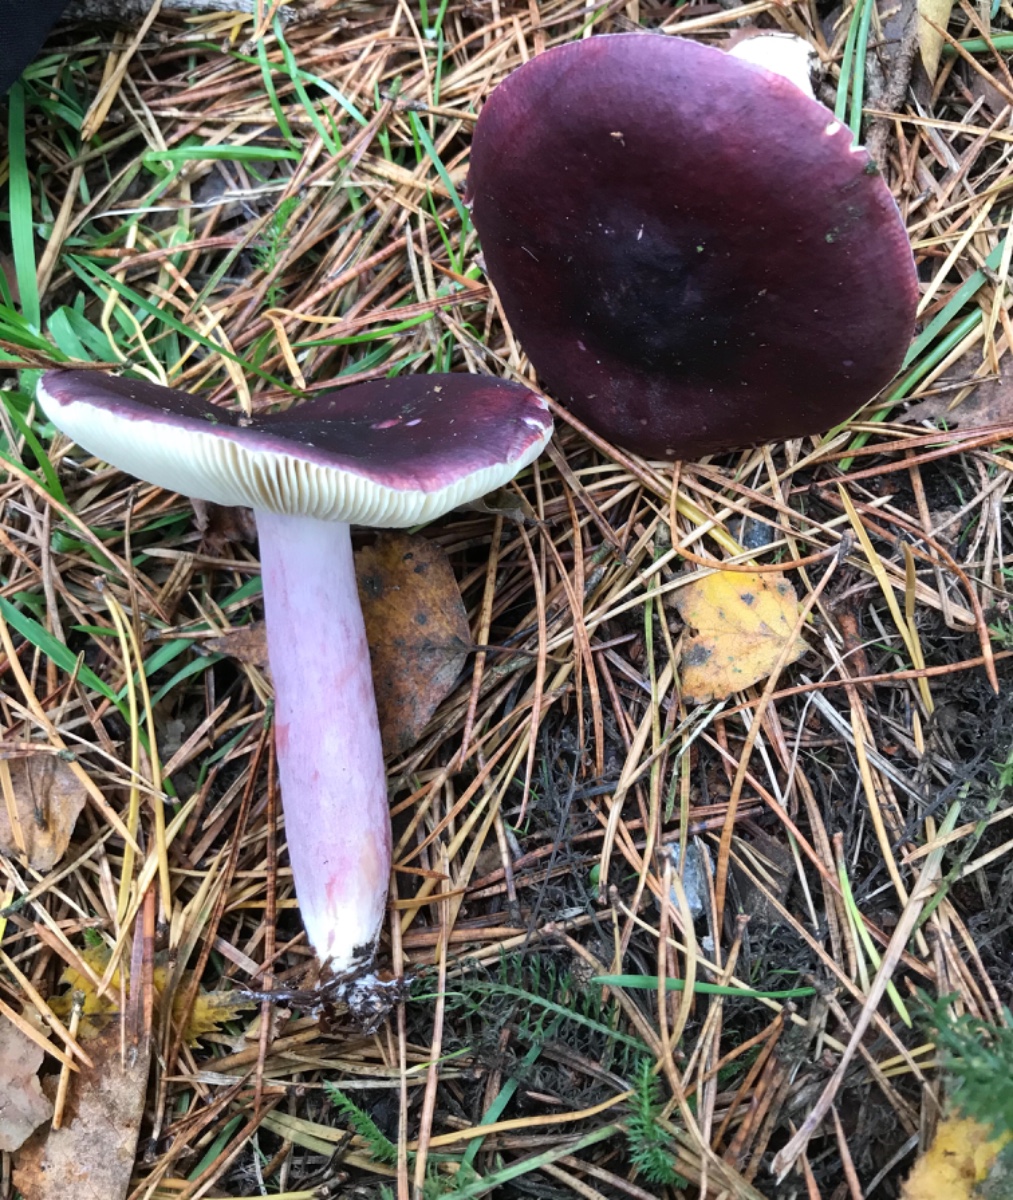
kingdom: Fungi
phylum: Basidiomycota
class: Agaricomycetes
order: Russulales
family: Russulaceae
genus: Russula
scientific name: Russula sardonia
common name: citronbladet skørhat
